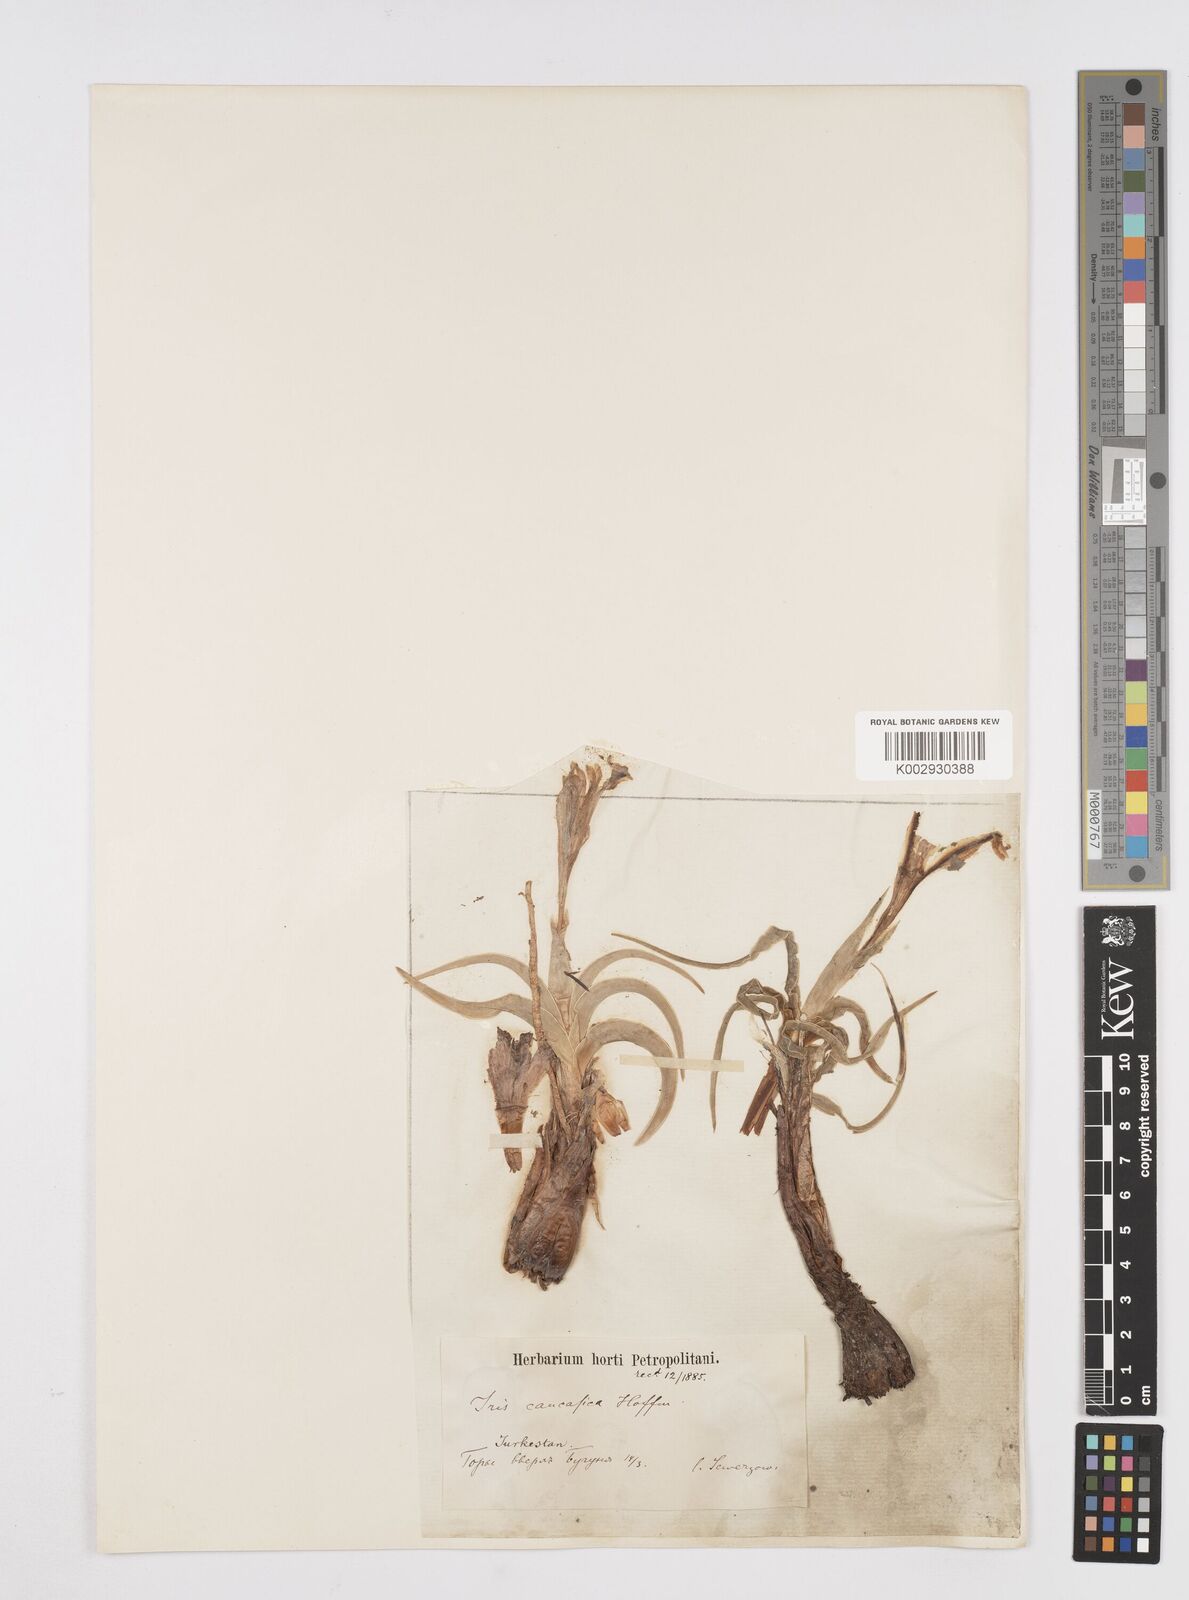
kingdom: Plantae
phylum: Tracheophyta
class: Liliopsida
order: Asparagales
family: Iridaceae
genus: Iris
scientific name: Iris albomarginata
